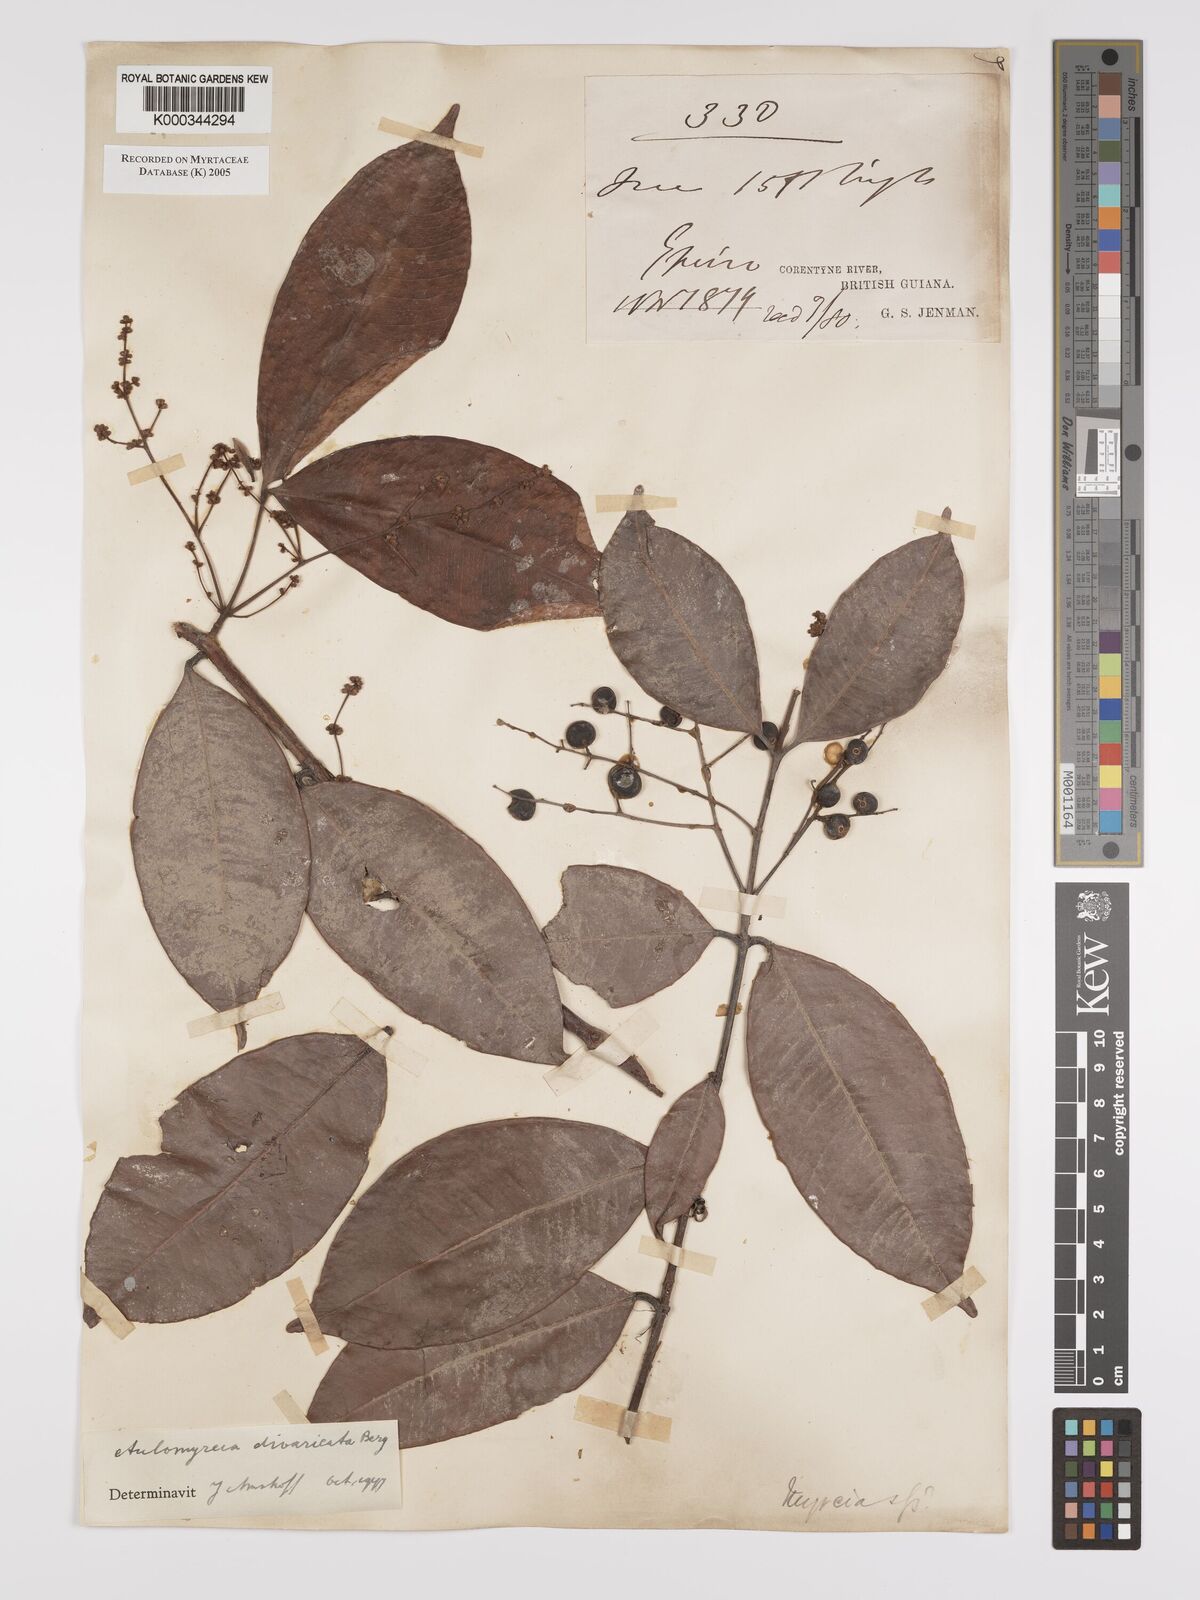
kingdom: Plantae
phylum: Tracheophyta
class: Magnoliopsida
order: Myrtales
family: Myrtaceae
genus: Myrcia
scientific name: Myrcia rufipila
